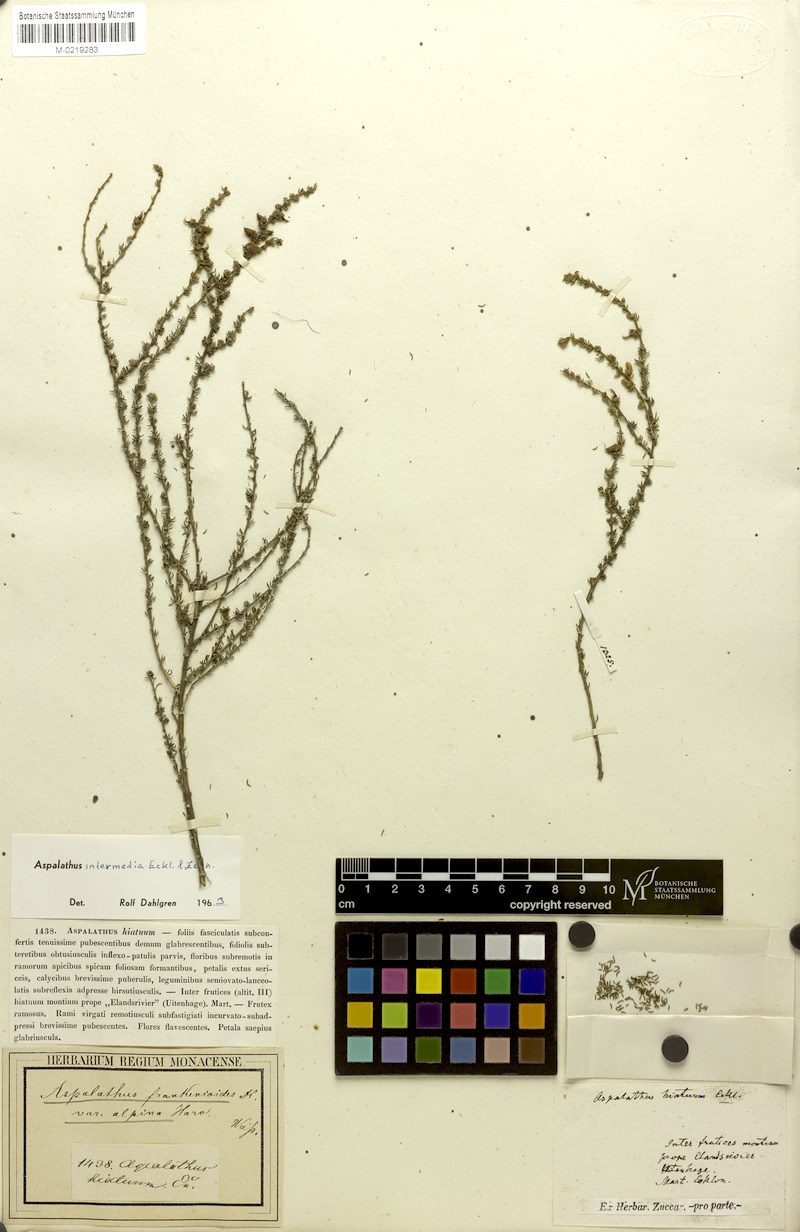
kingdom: Plantae
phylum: Tracheophyta
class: Magnoliopsida
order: Fabales
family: Fabaceae
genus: Aspalathus
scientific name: Aspalathus intermedia
